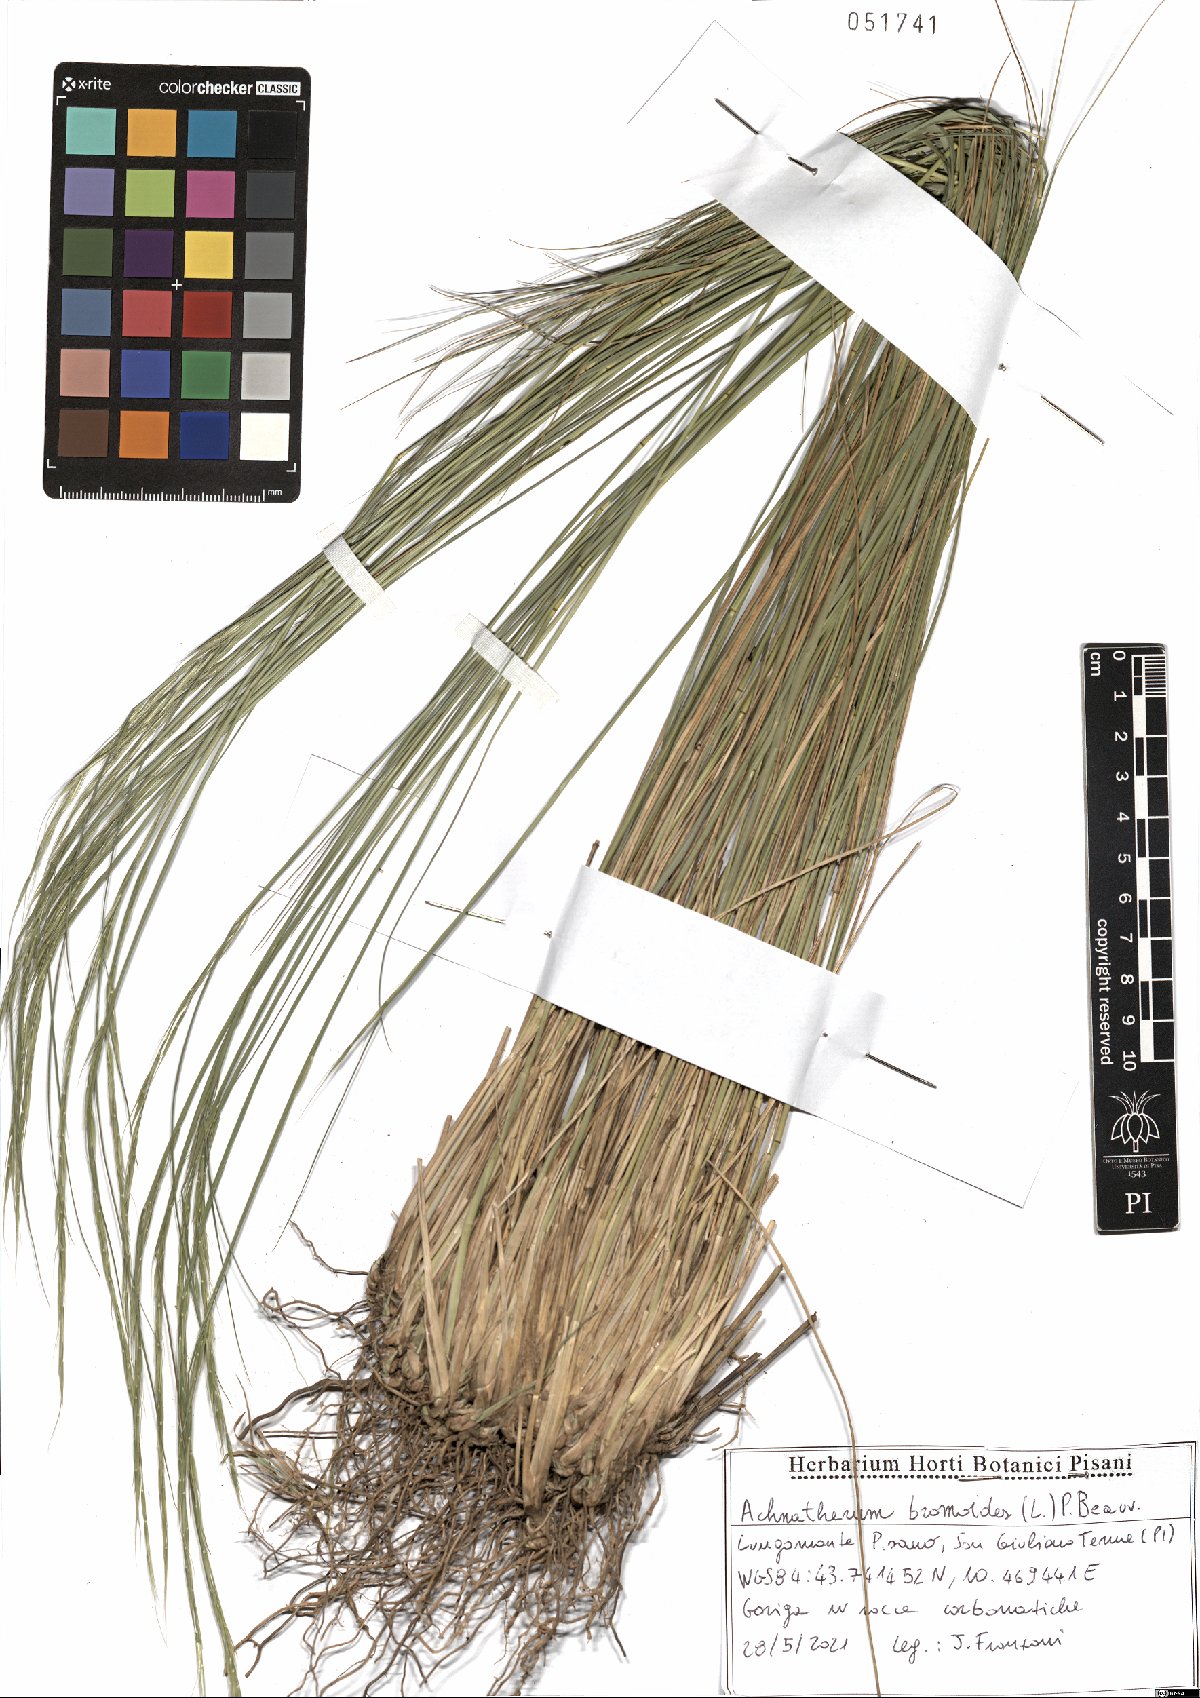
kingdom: Plantae
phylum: Tracheophyta
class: Liliopsida
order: Poales
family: Poaceae
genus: Achnatherum
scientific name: Achnatherum bromoides
